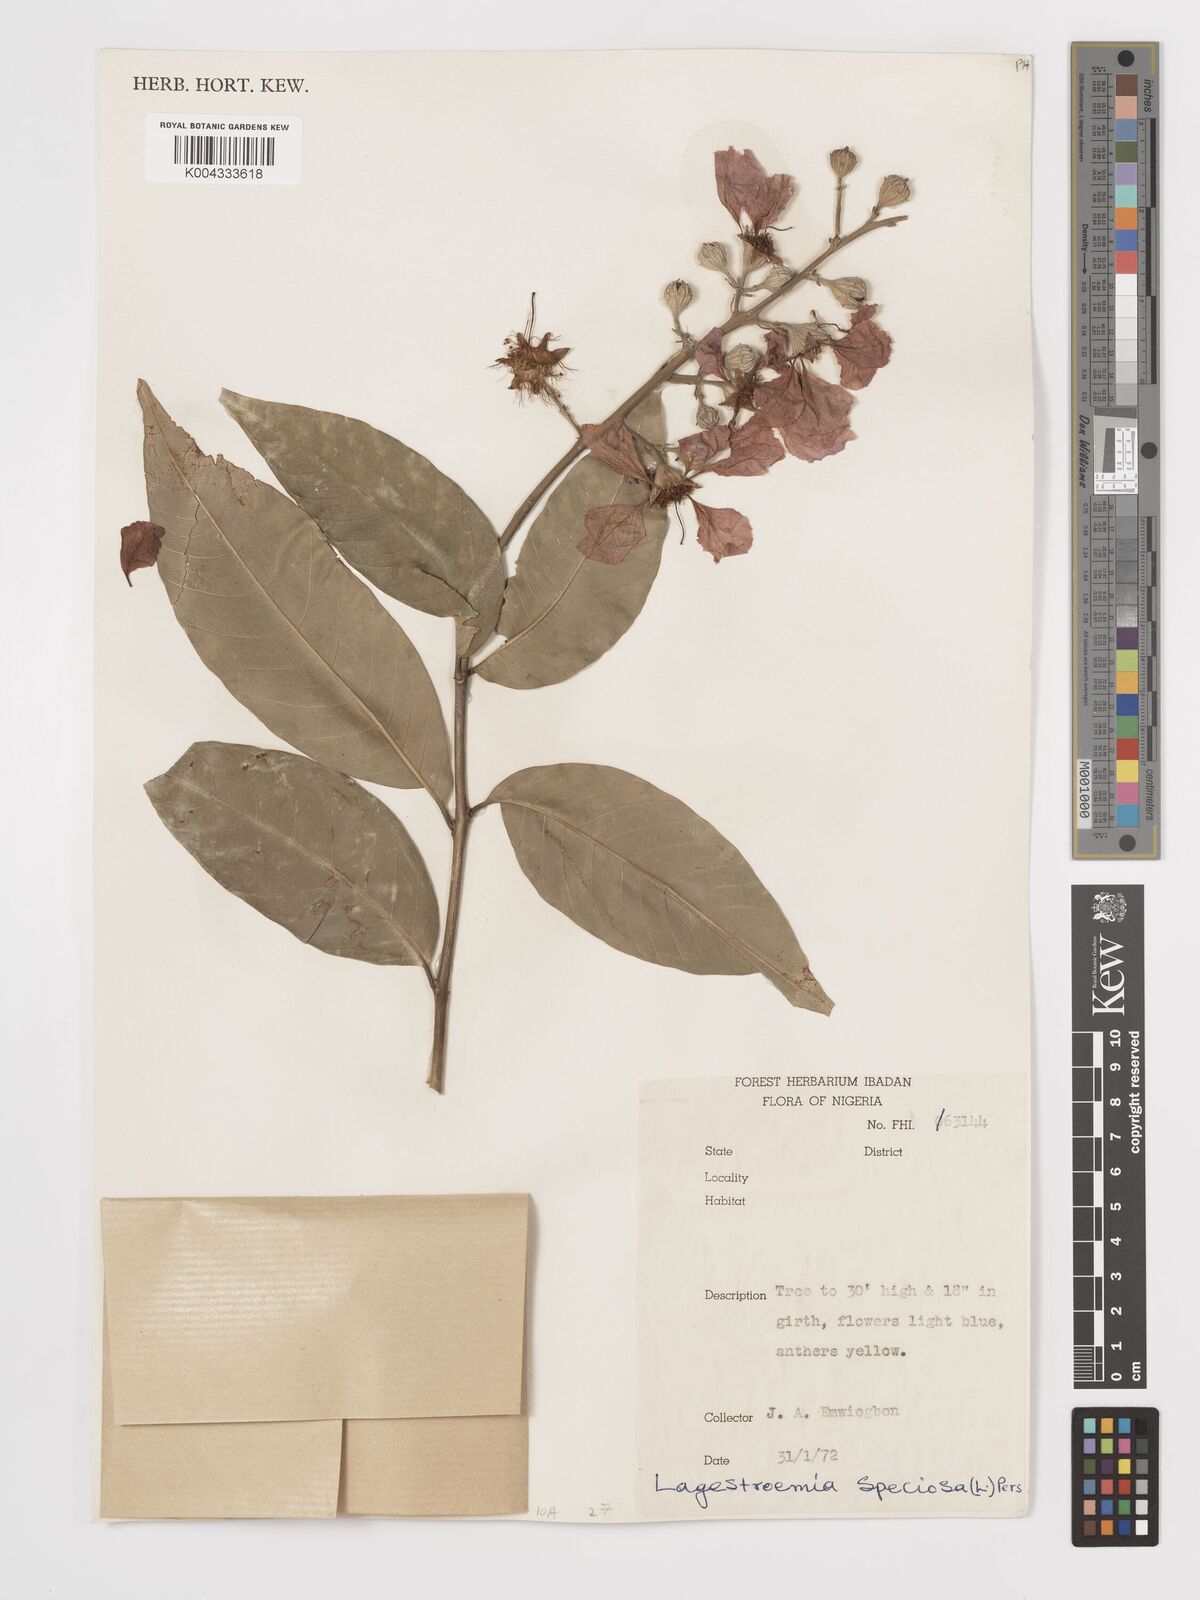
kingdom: Plantae
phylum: Tracheophyta
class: Magnoliopsida
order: Myrtales
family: Lythraceae
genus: Lagerstroemia
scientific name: Lagerstroemia speciosa
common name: Queen's crape-myrtle
